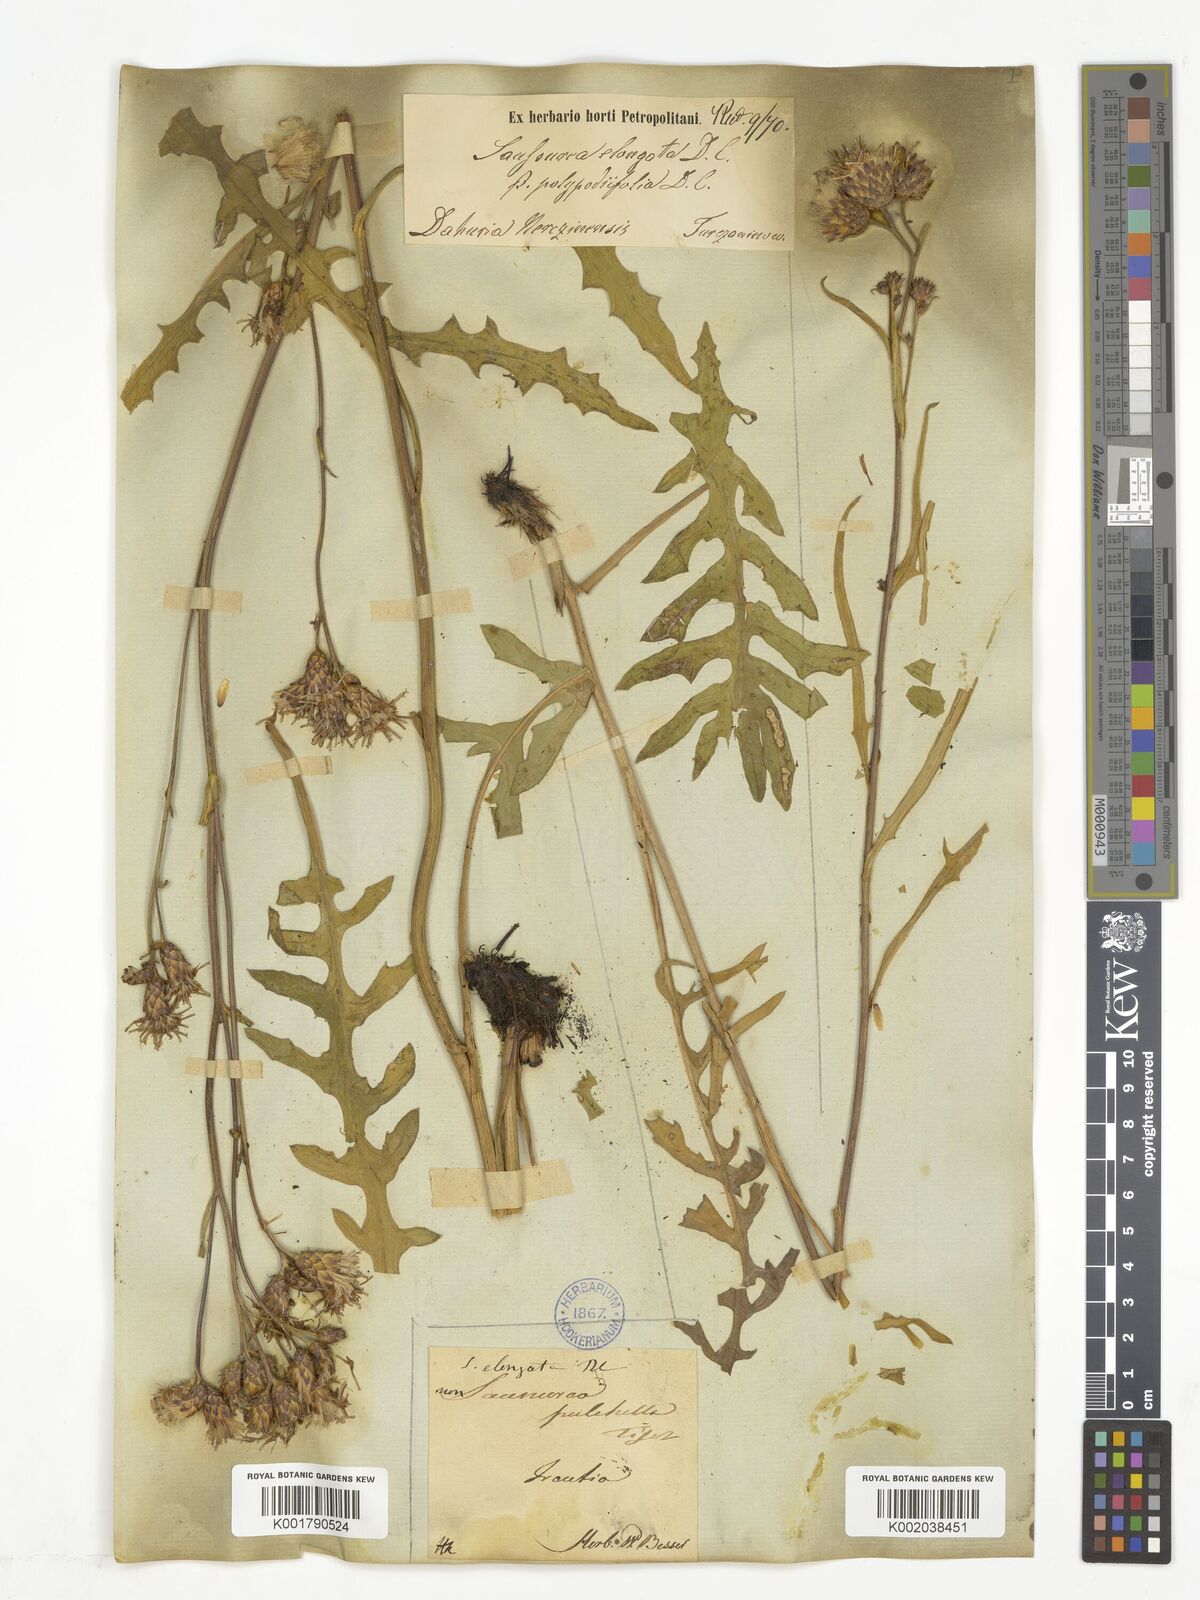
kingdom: Plantae
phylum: Tracheophyta
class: Magnoliopsida
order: Asterales
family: Asteraceae
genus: Saussurea
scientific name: Saussurea pulchella
